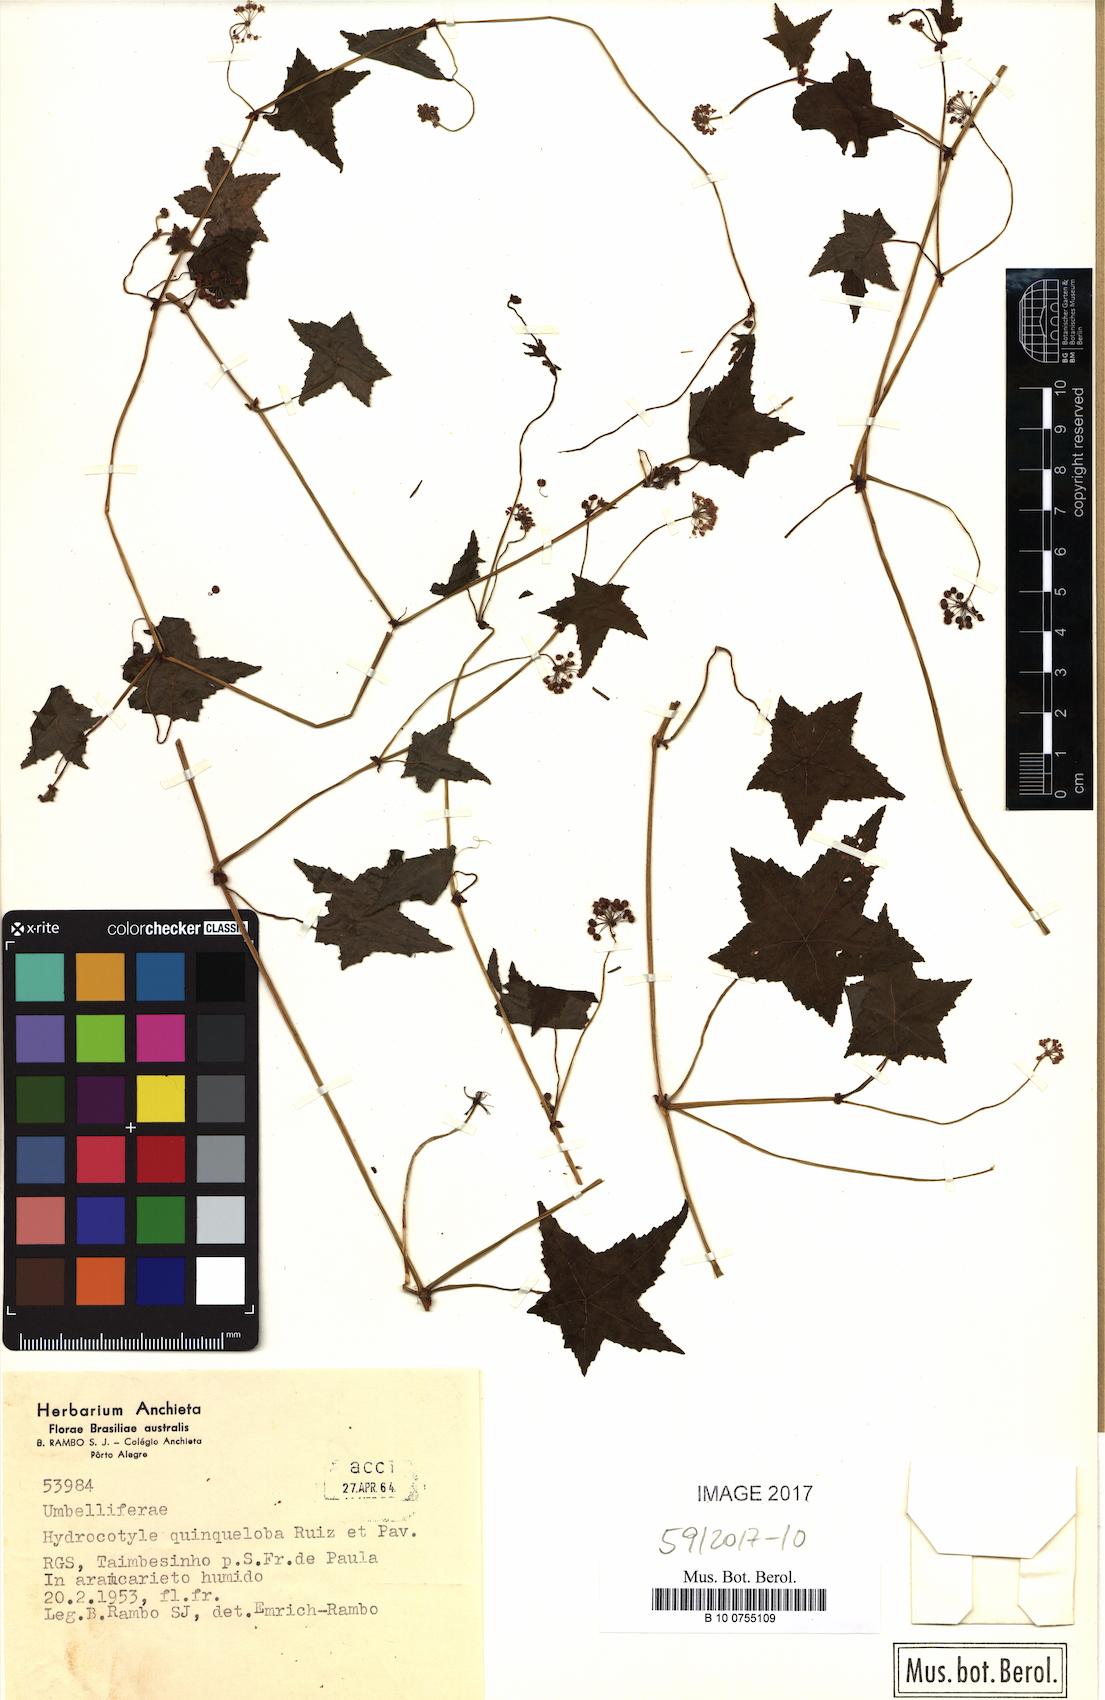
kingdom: Plantae
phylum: Tracheophyta
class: Magnoliopsida
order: Apiales
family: Araliaceae
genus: Hydrocotyle
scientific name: Hydrocotyle quinqueloba
